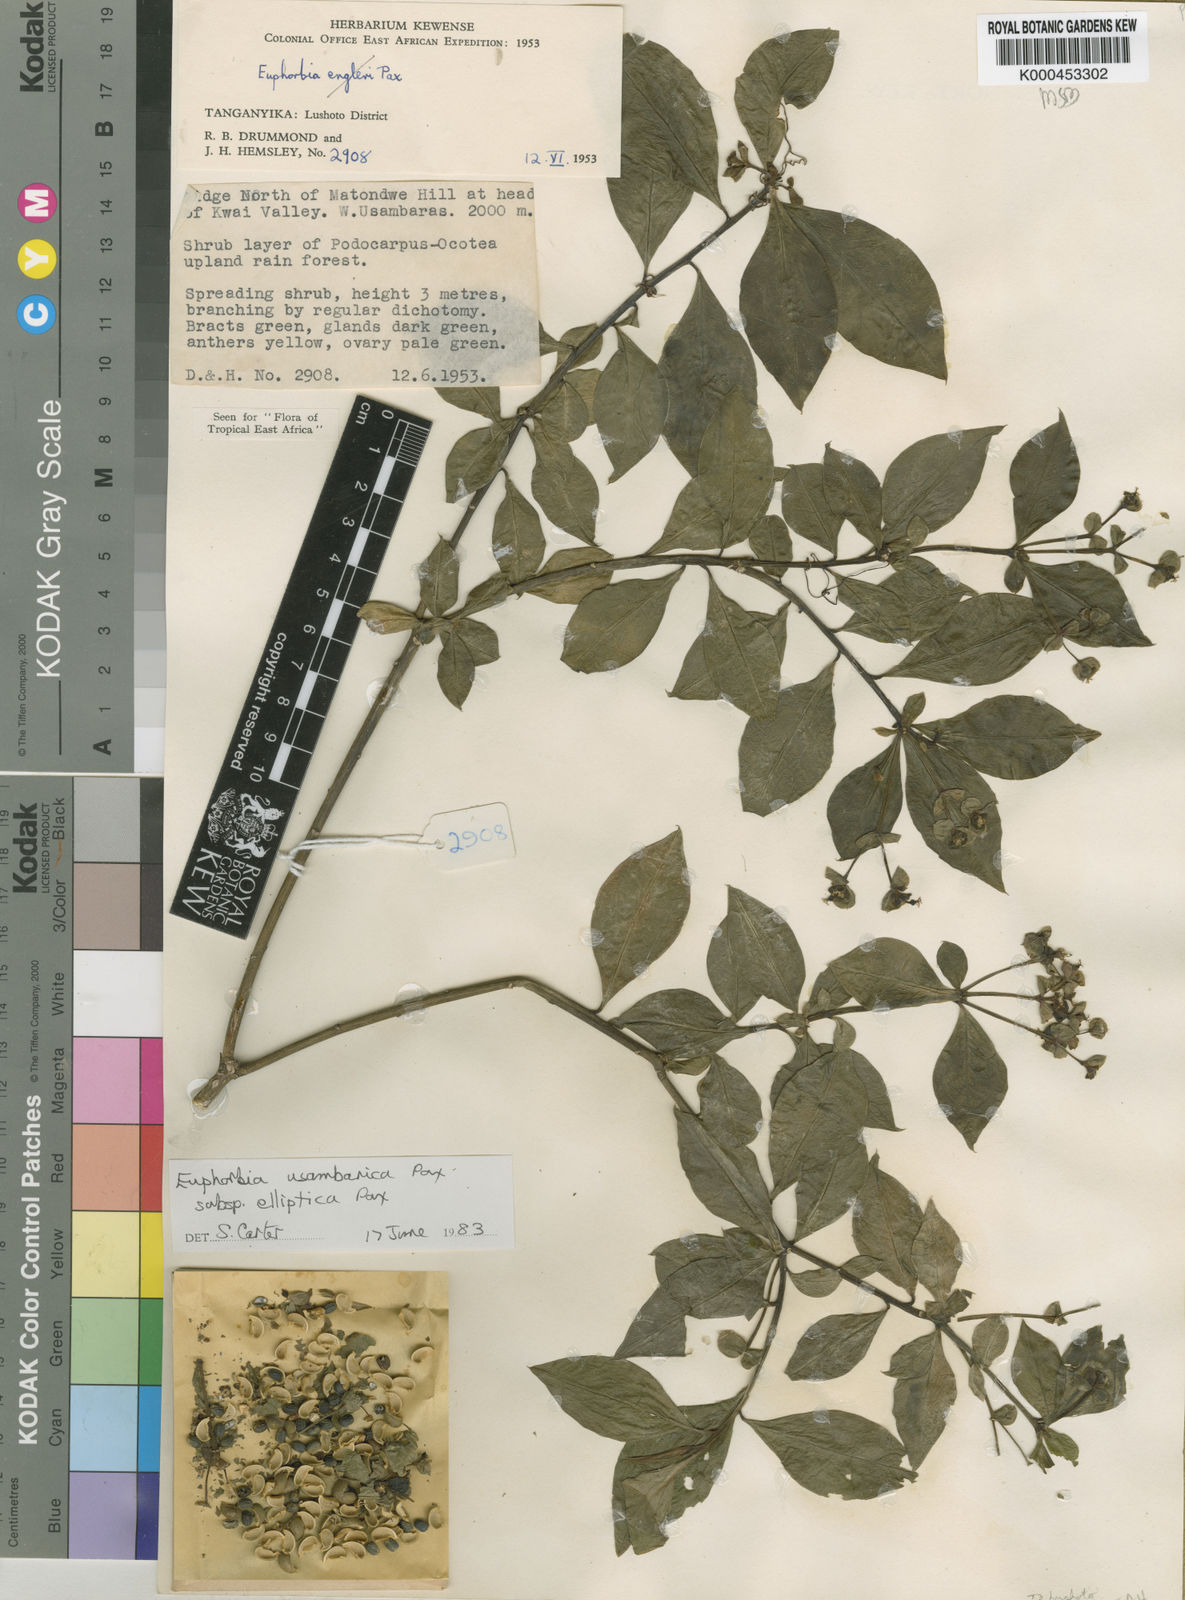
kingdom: Plantae
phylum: Tracheophyta
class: Magnoliopsida
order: Malpighiales
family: Euphorbiaceae
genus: Euphorbia
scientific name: Euphorbia usambarica
